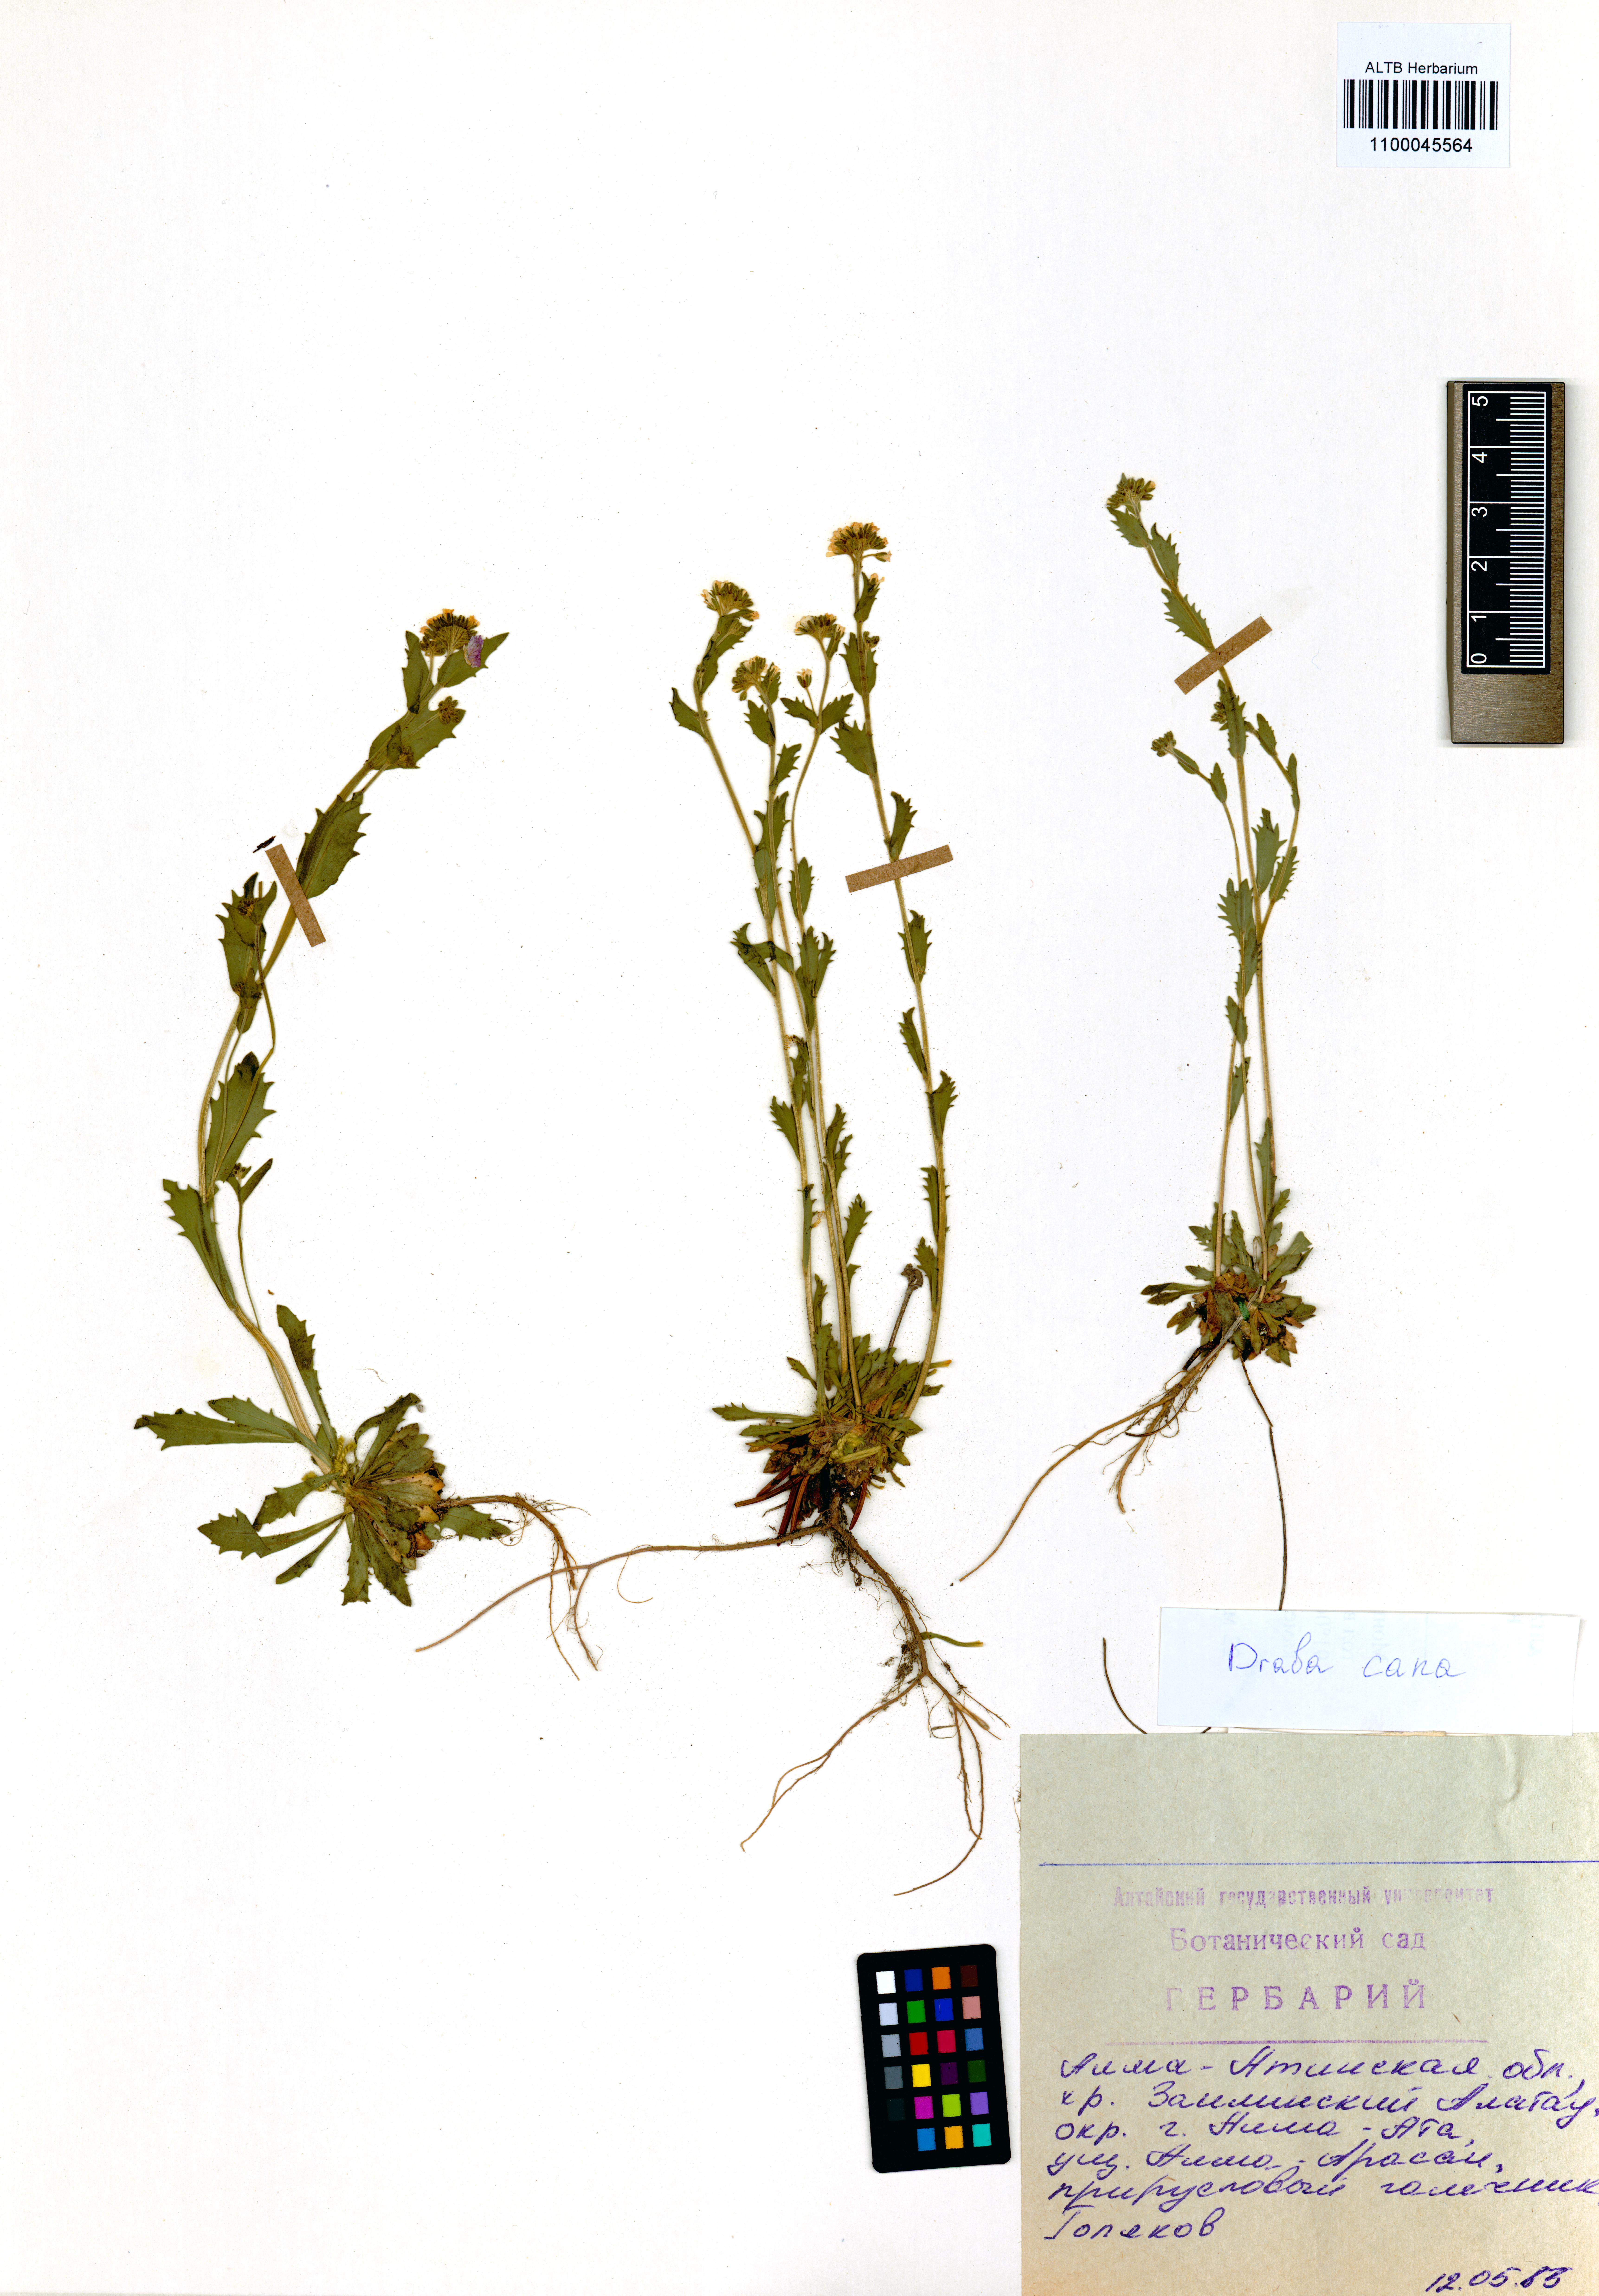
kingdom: Plantae
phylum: Tracheophyta
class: Magnoliopsida
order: Brassicales
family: Brassicaceae
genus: Draba
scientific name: Draba cana
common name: Hoary draba
